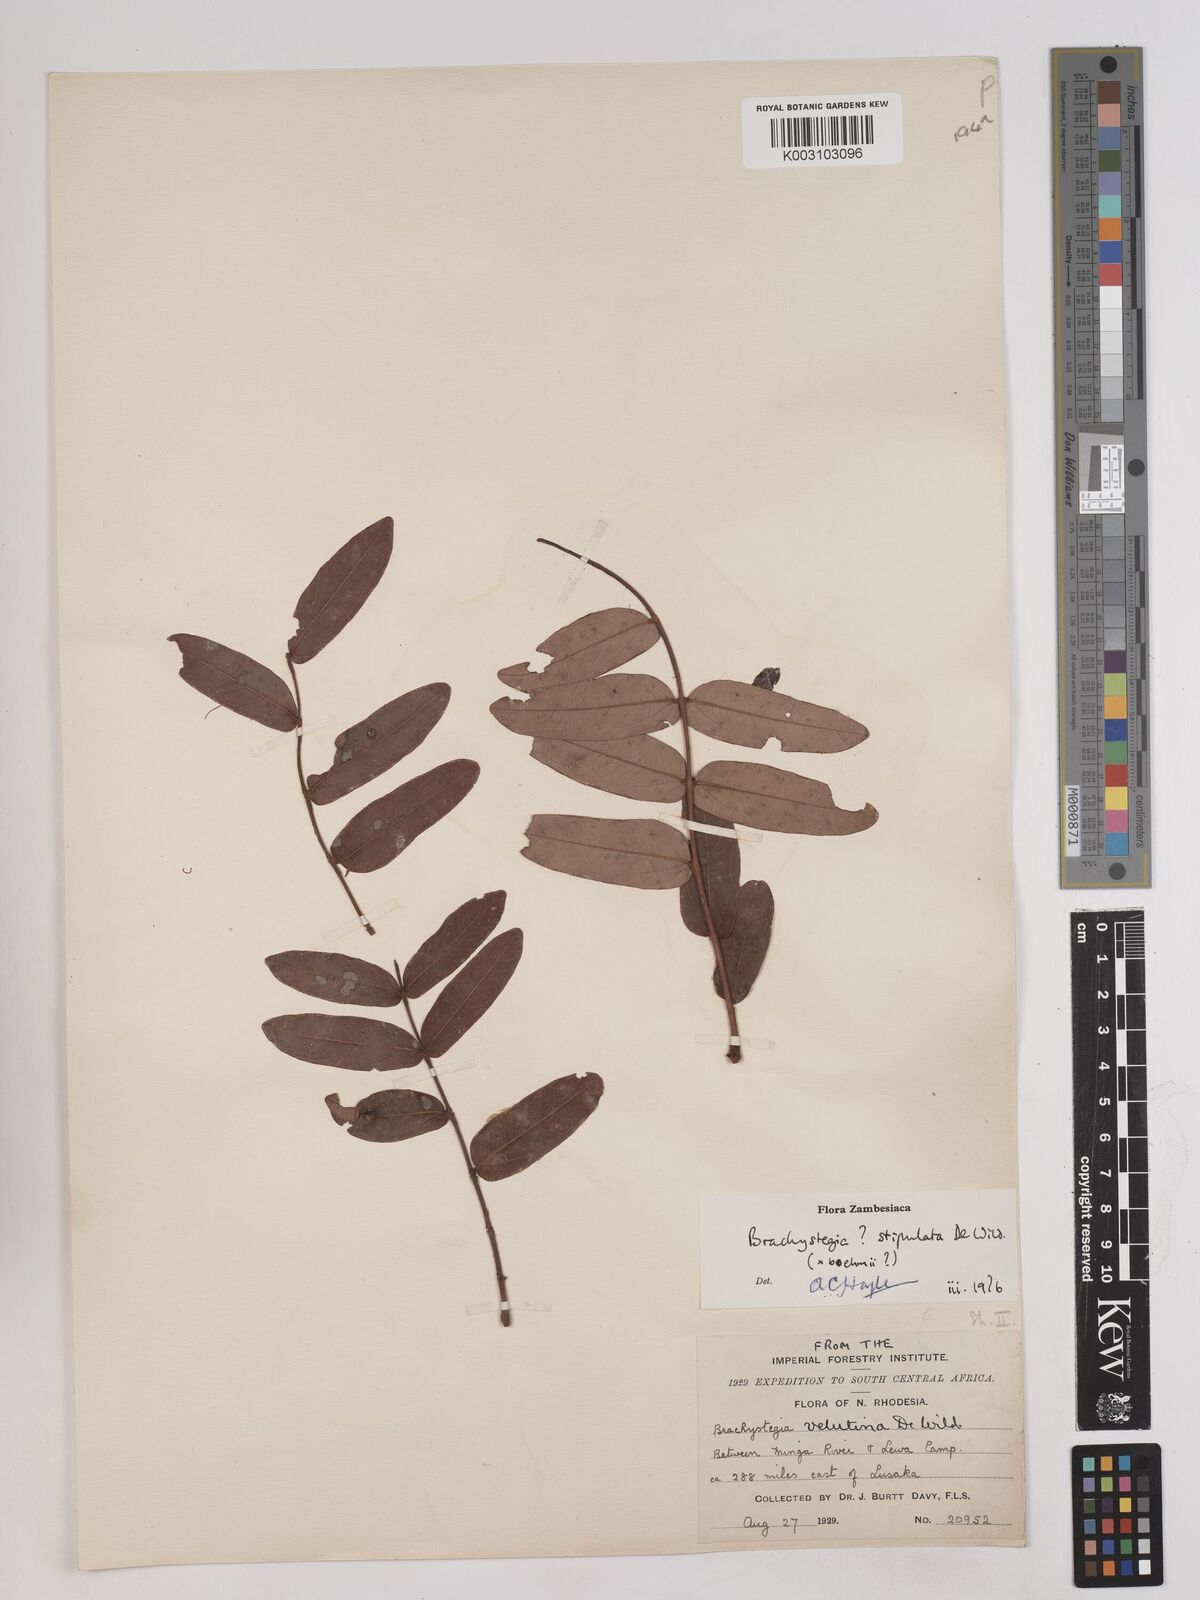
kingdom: Plantae
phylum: Tracheophyta
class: Magnoliopsida
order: Fabales
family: Fabaceae
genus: Brachystegia
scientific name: Brachystegia stipulata
